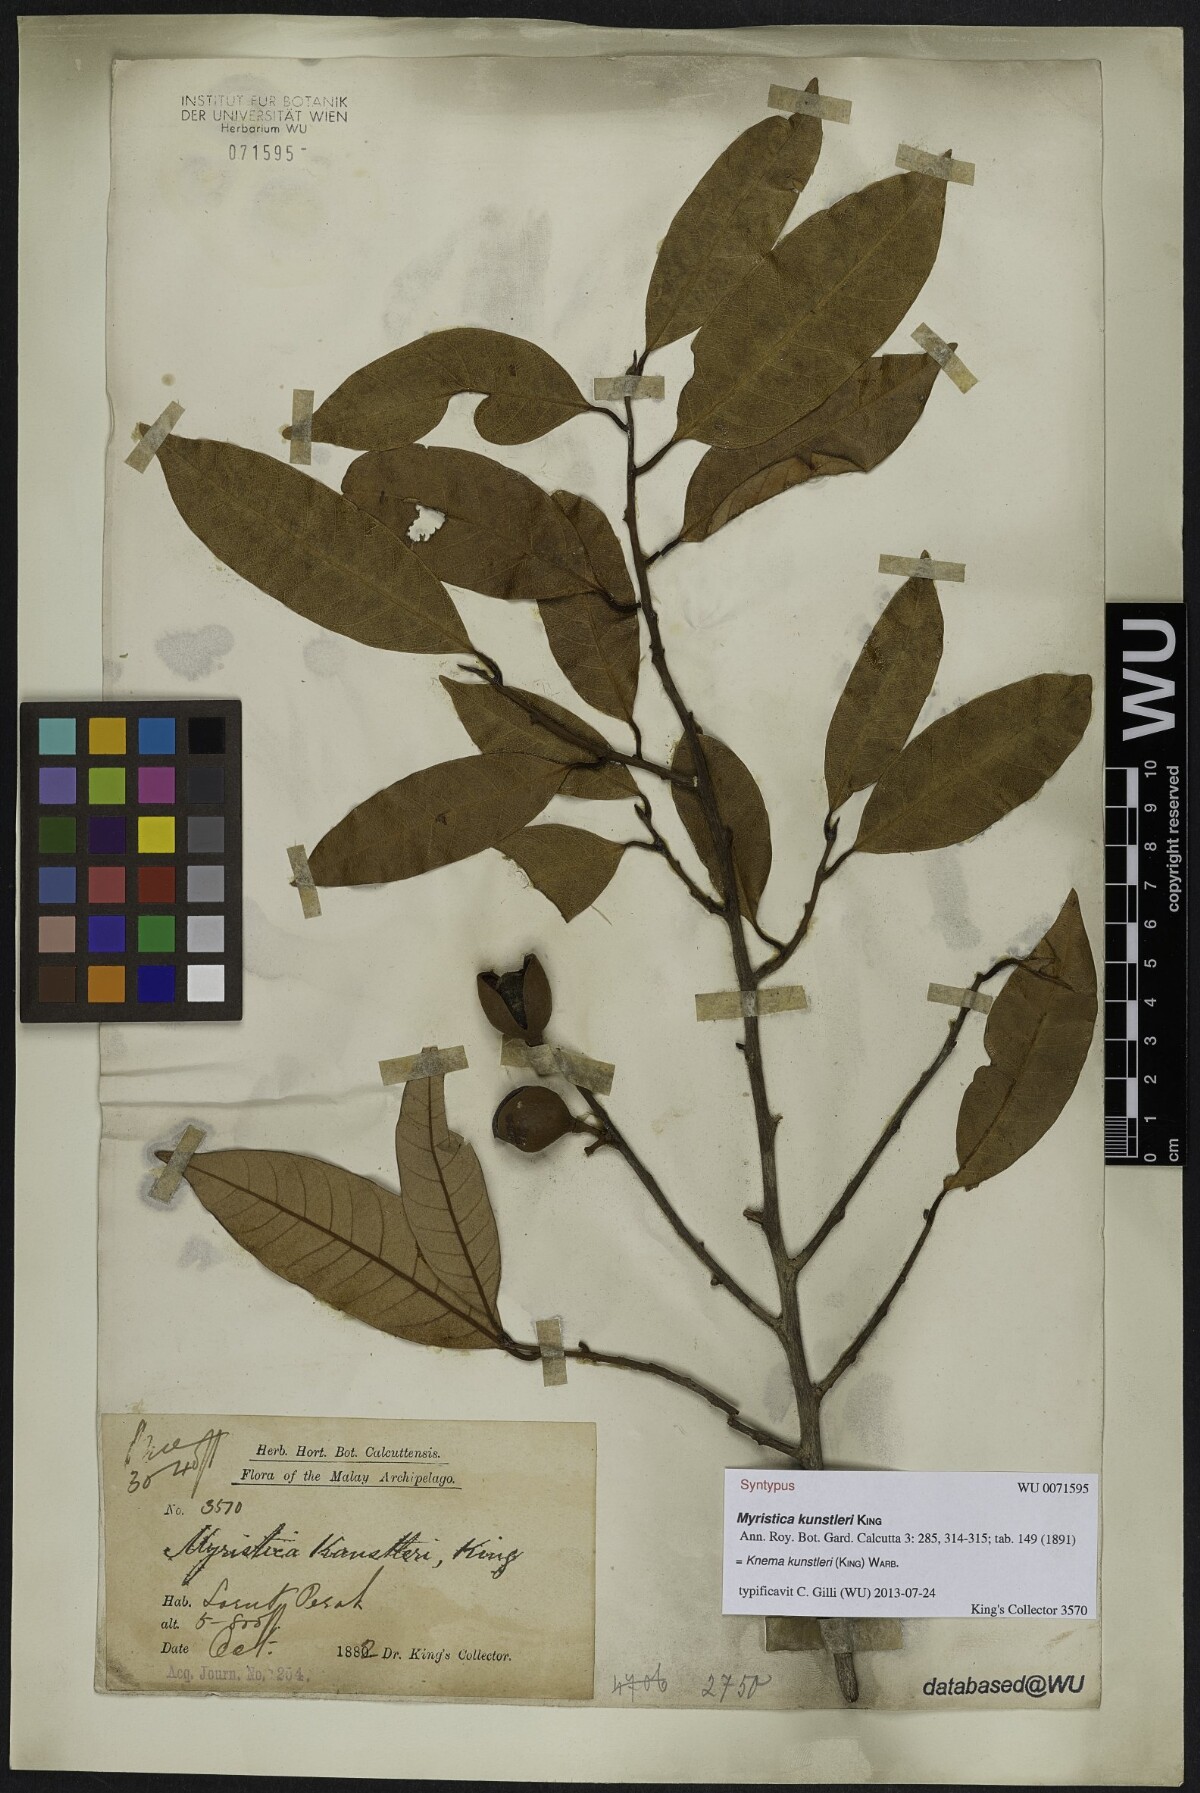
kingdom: Plantae
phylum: Tracheophyta
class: Magnoliopsida
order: Magnoliales
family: Myristicaceae
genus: Knema
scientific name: Knema kunstleri
